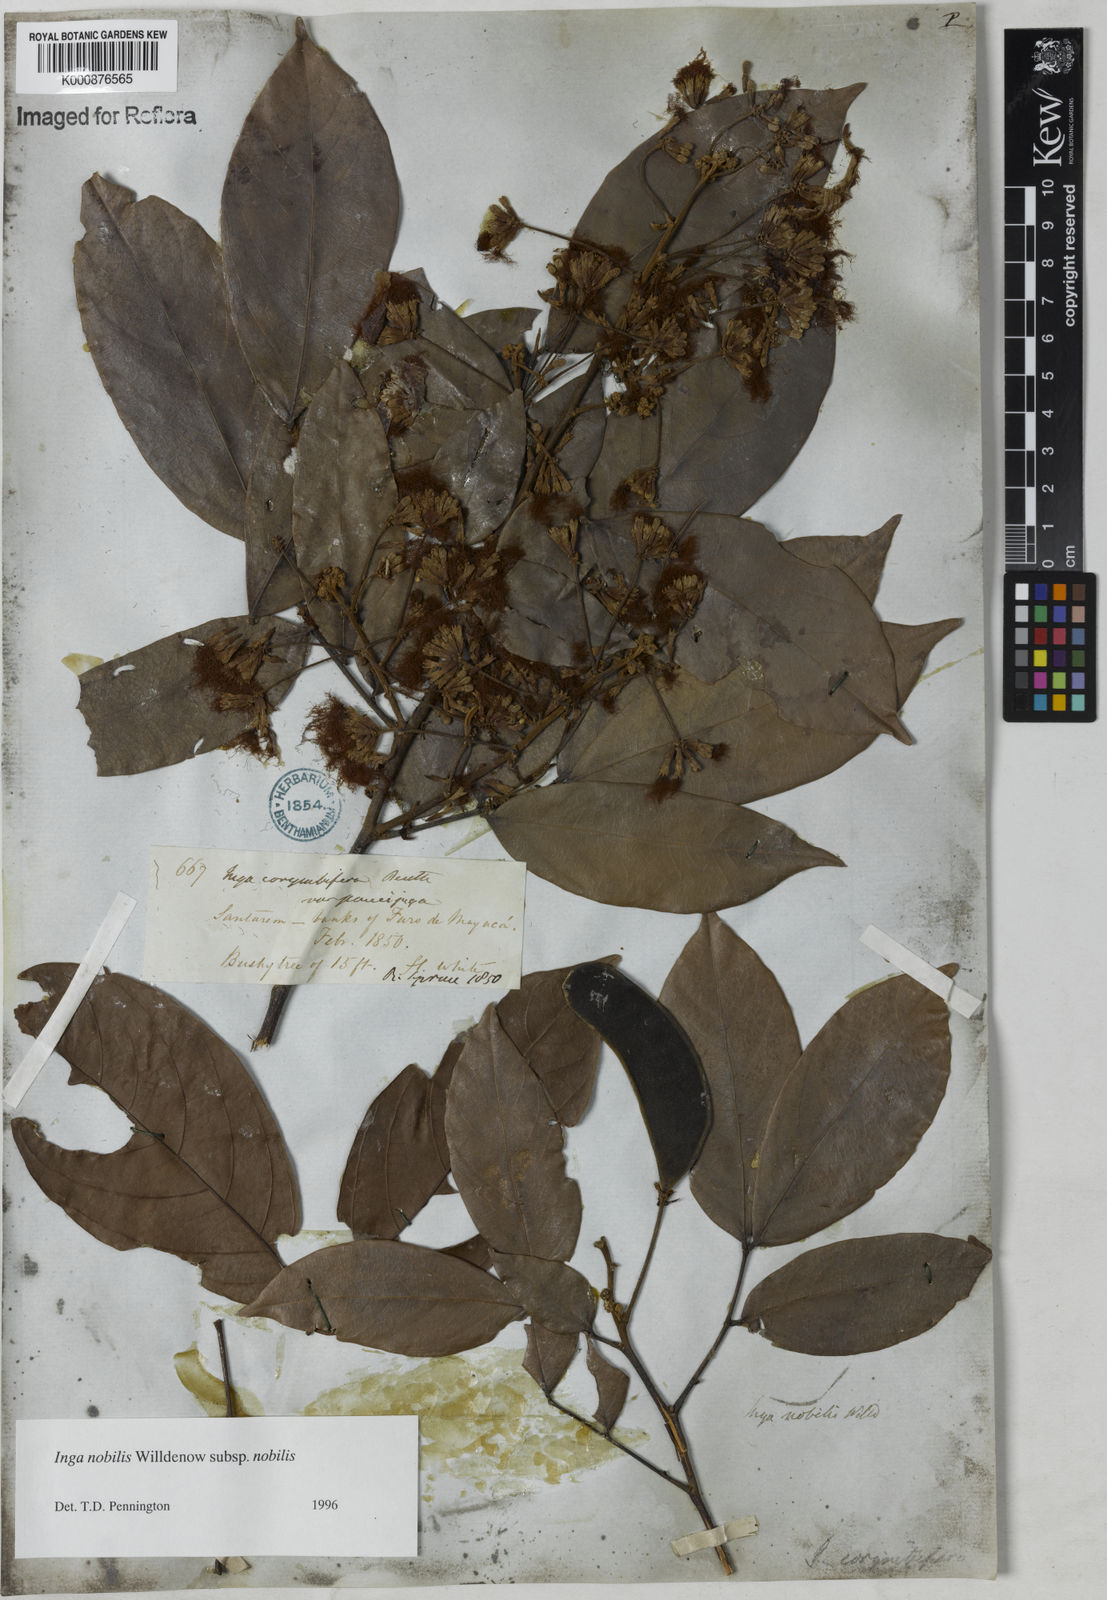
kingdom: Plantae
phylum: Tracheophyta
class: Magnoliopsida
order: Fabales
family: Fabaceae
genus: Inga
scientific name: Inga nobilis
